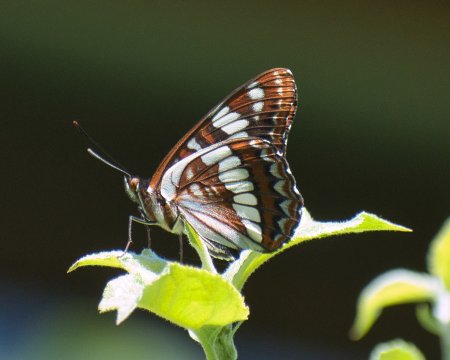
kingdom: Animalia
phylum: Arthropoda
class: Insecta
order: Lepidoptera
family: Nymphalidae
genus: Limenitis
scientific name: Limenitis lorquini
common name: Lorquin's Admiral
